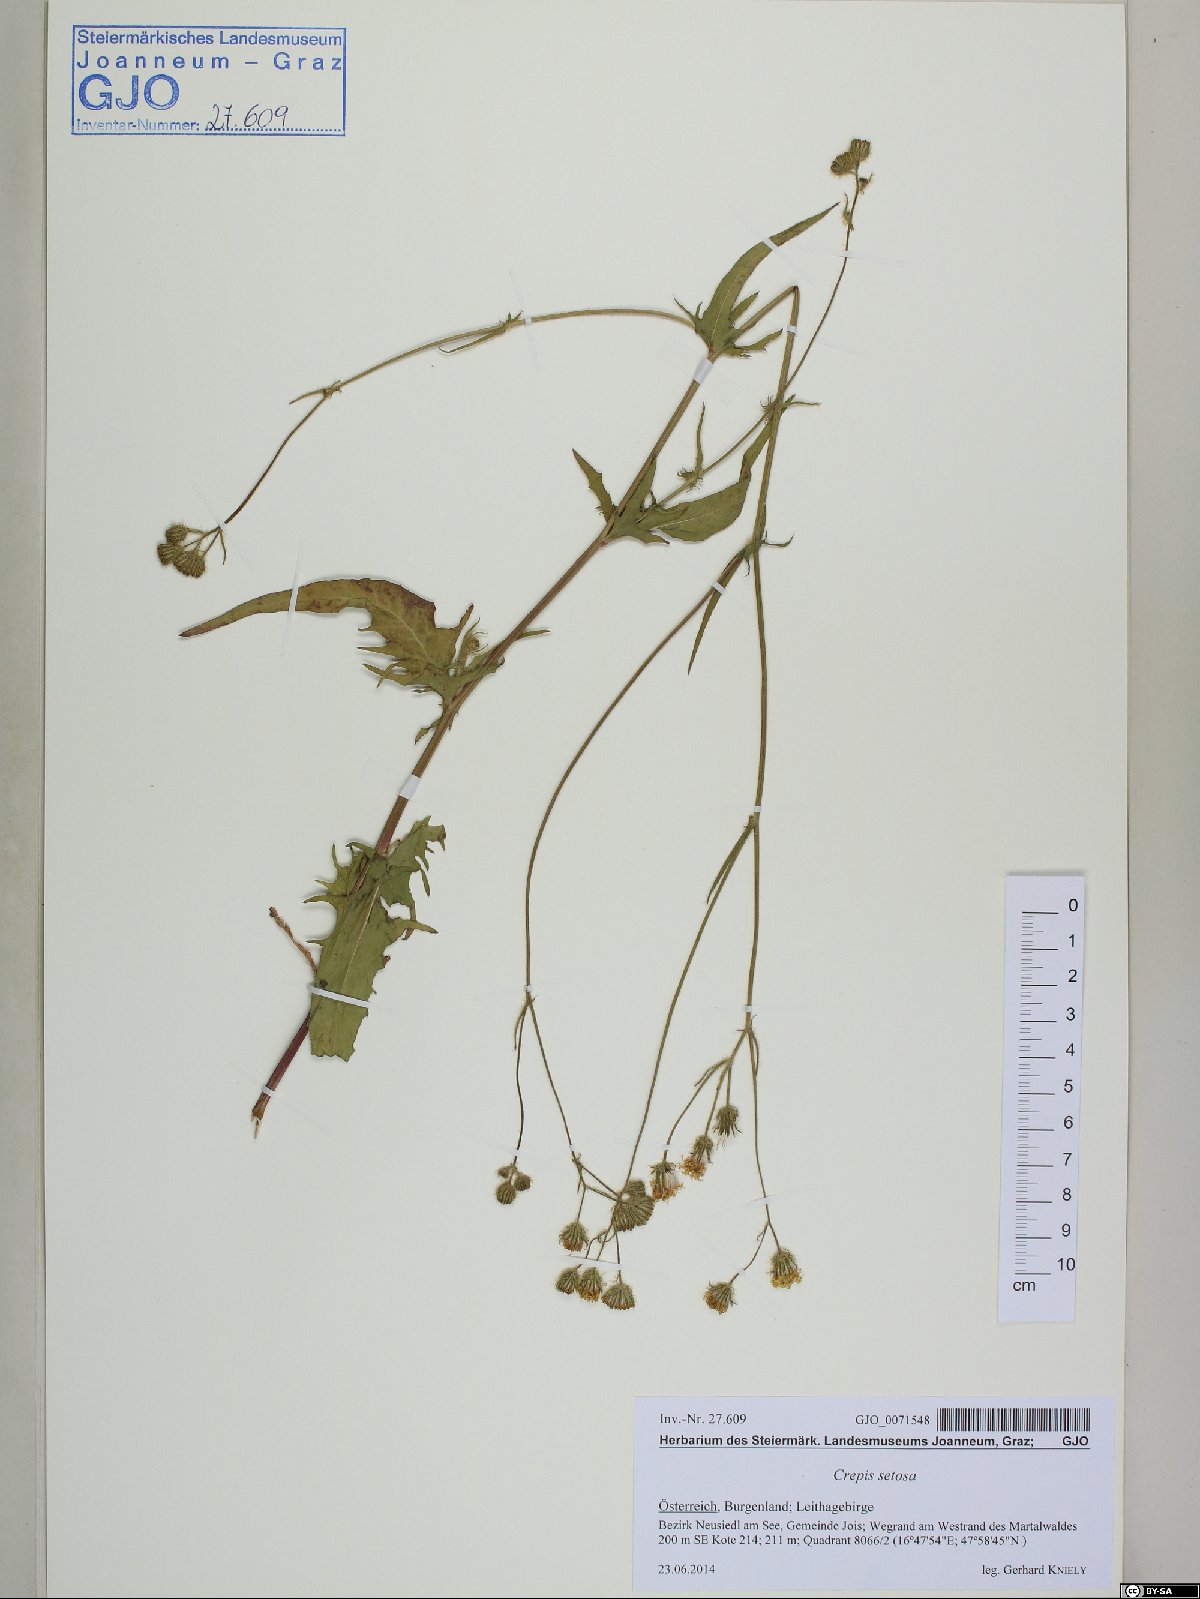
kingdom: Plantae
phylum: Tracheophyta
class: Magnoliopsida
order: Asterales
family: Asteraceae
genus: Crepis
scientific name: Crepis setosa
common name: Bristly hawk's-beard
